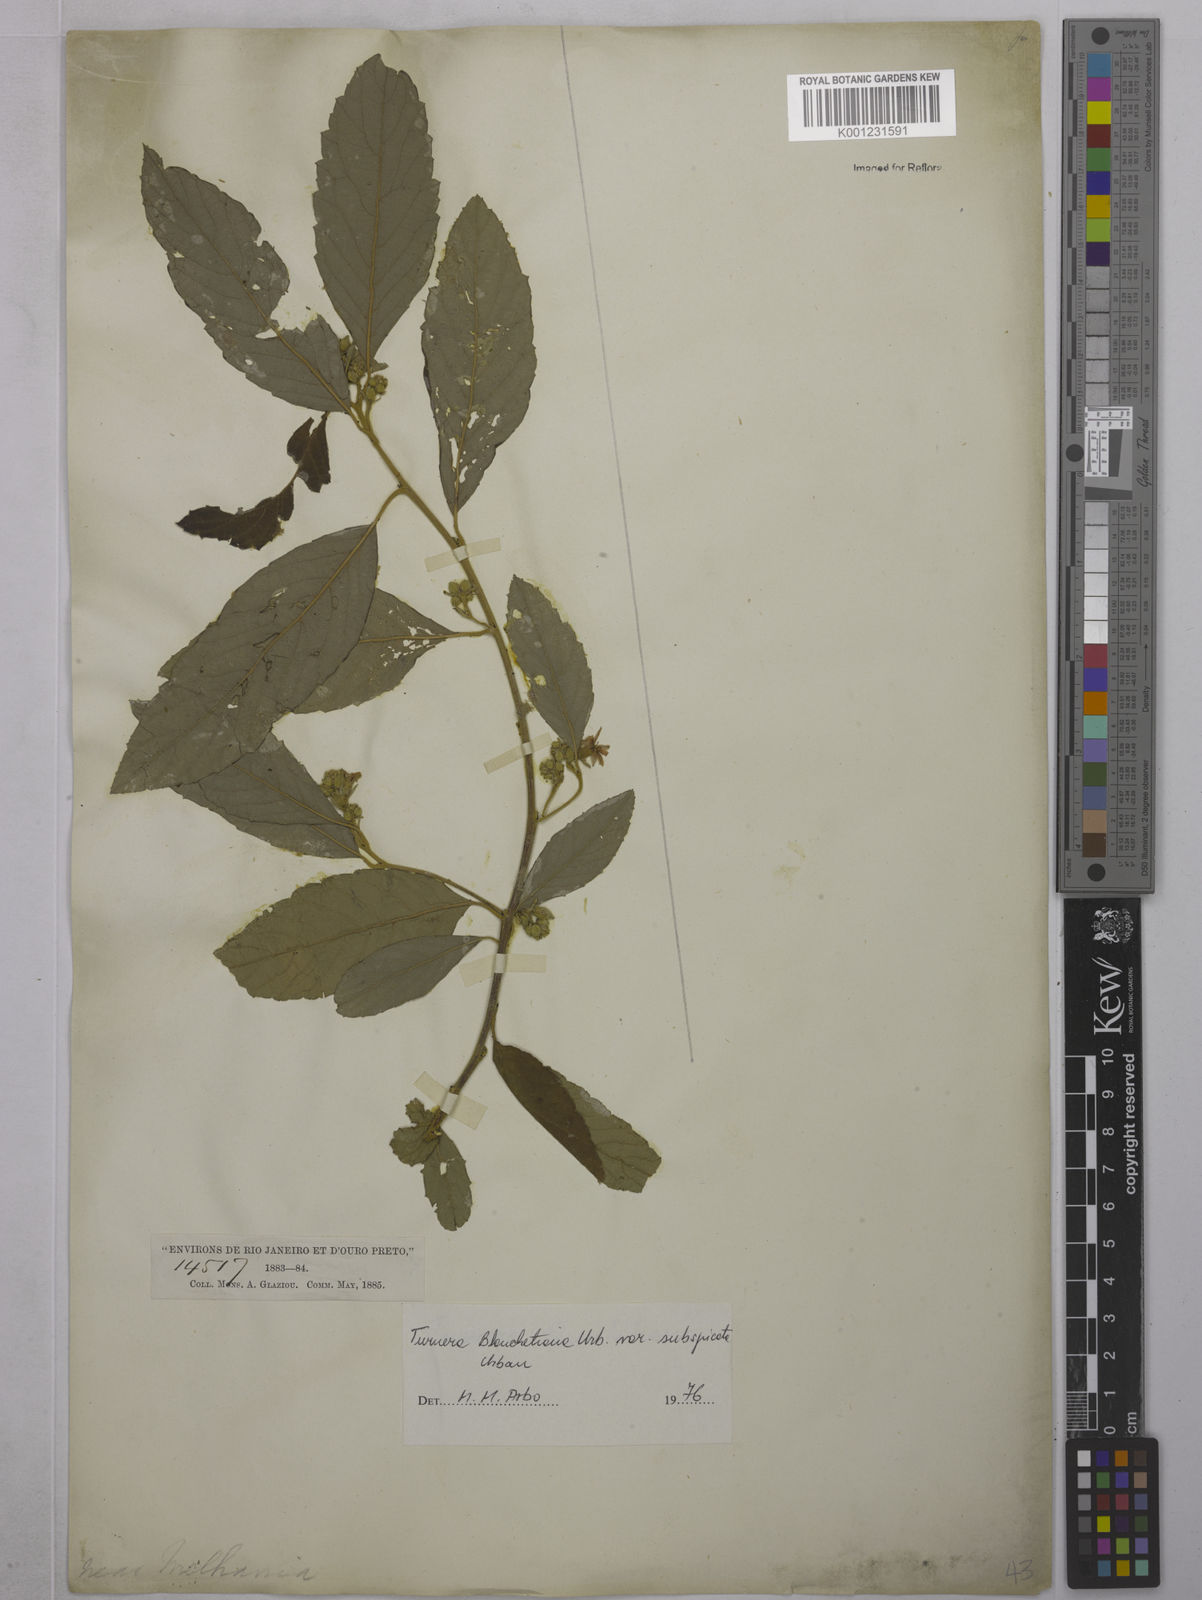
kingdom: Plantae
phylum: Tracheophyta
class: Magnoliopsida
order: Malpighiales
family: Turneraceae
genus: Turnera
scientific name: Turnera blanchetiana
